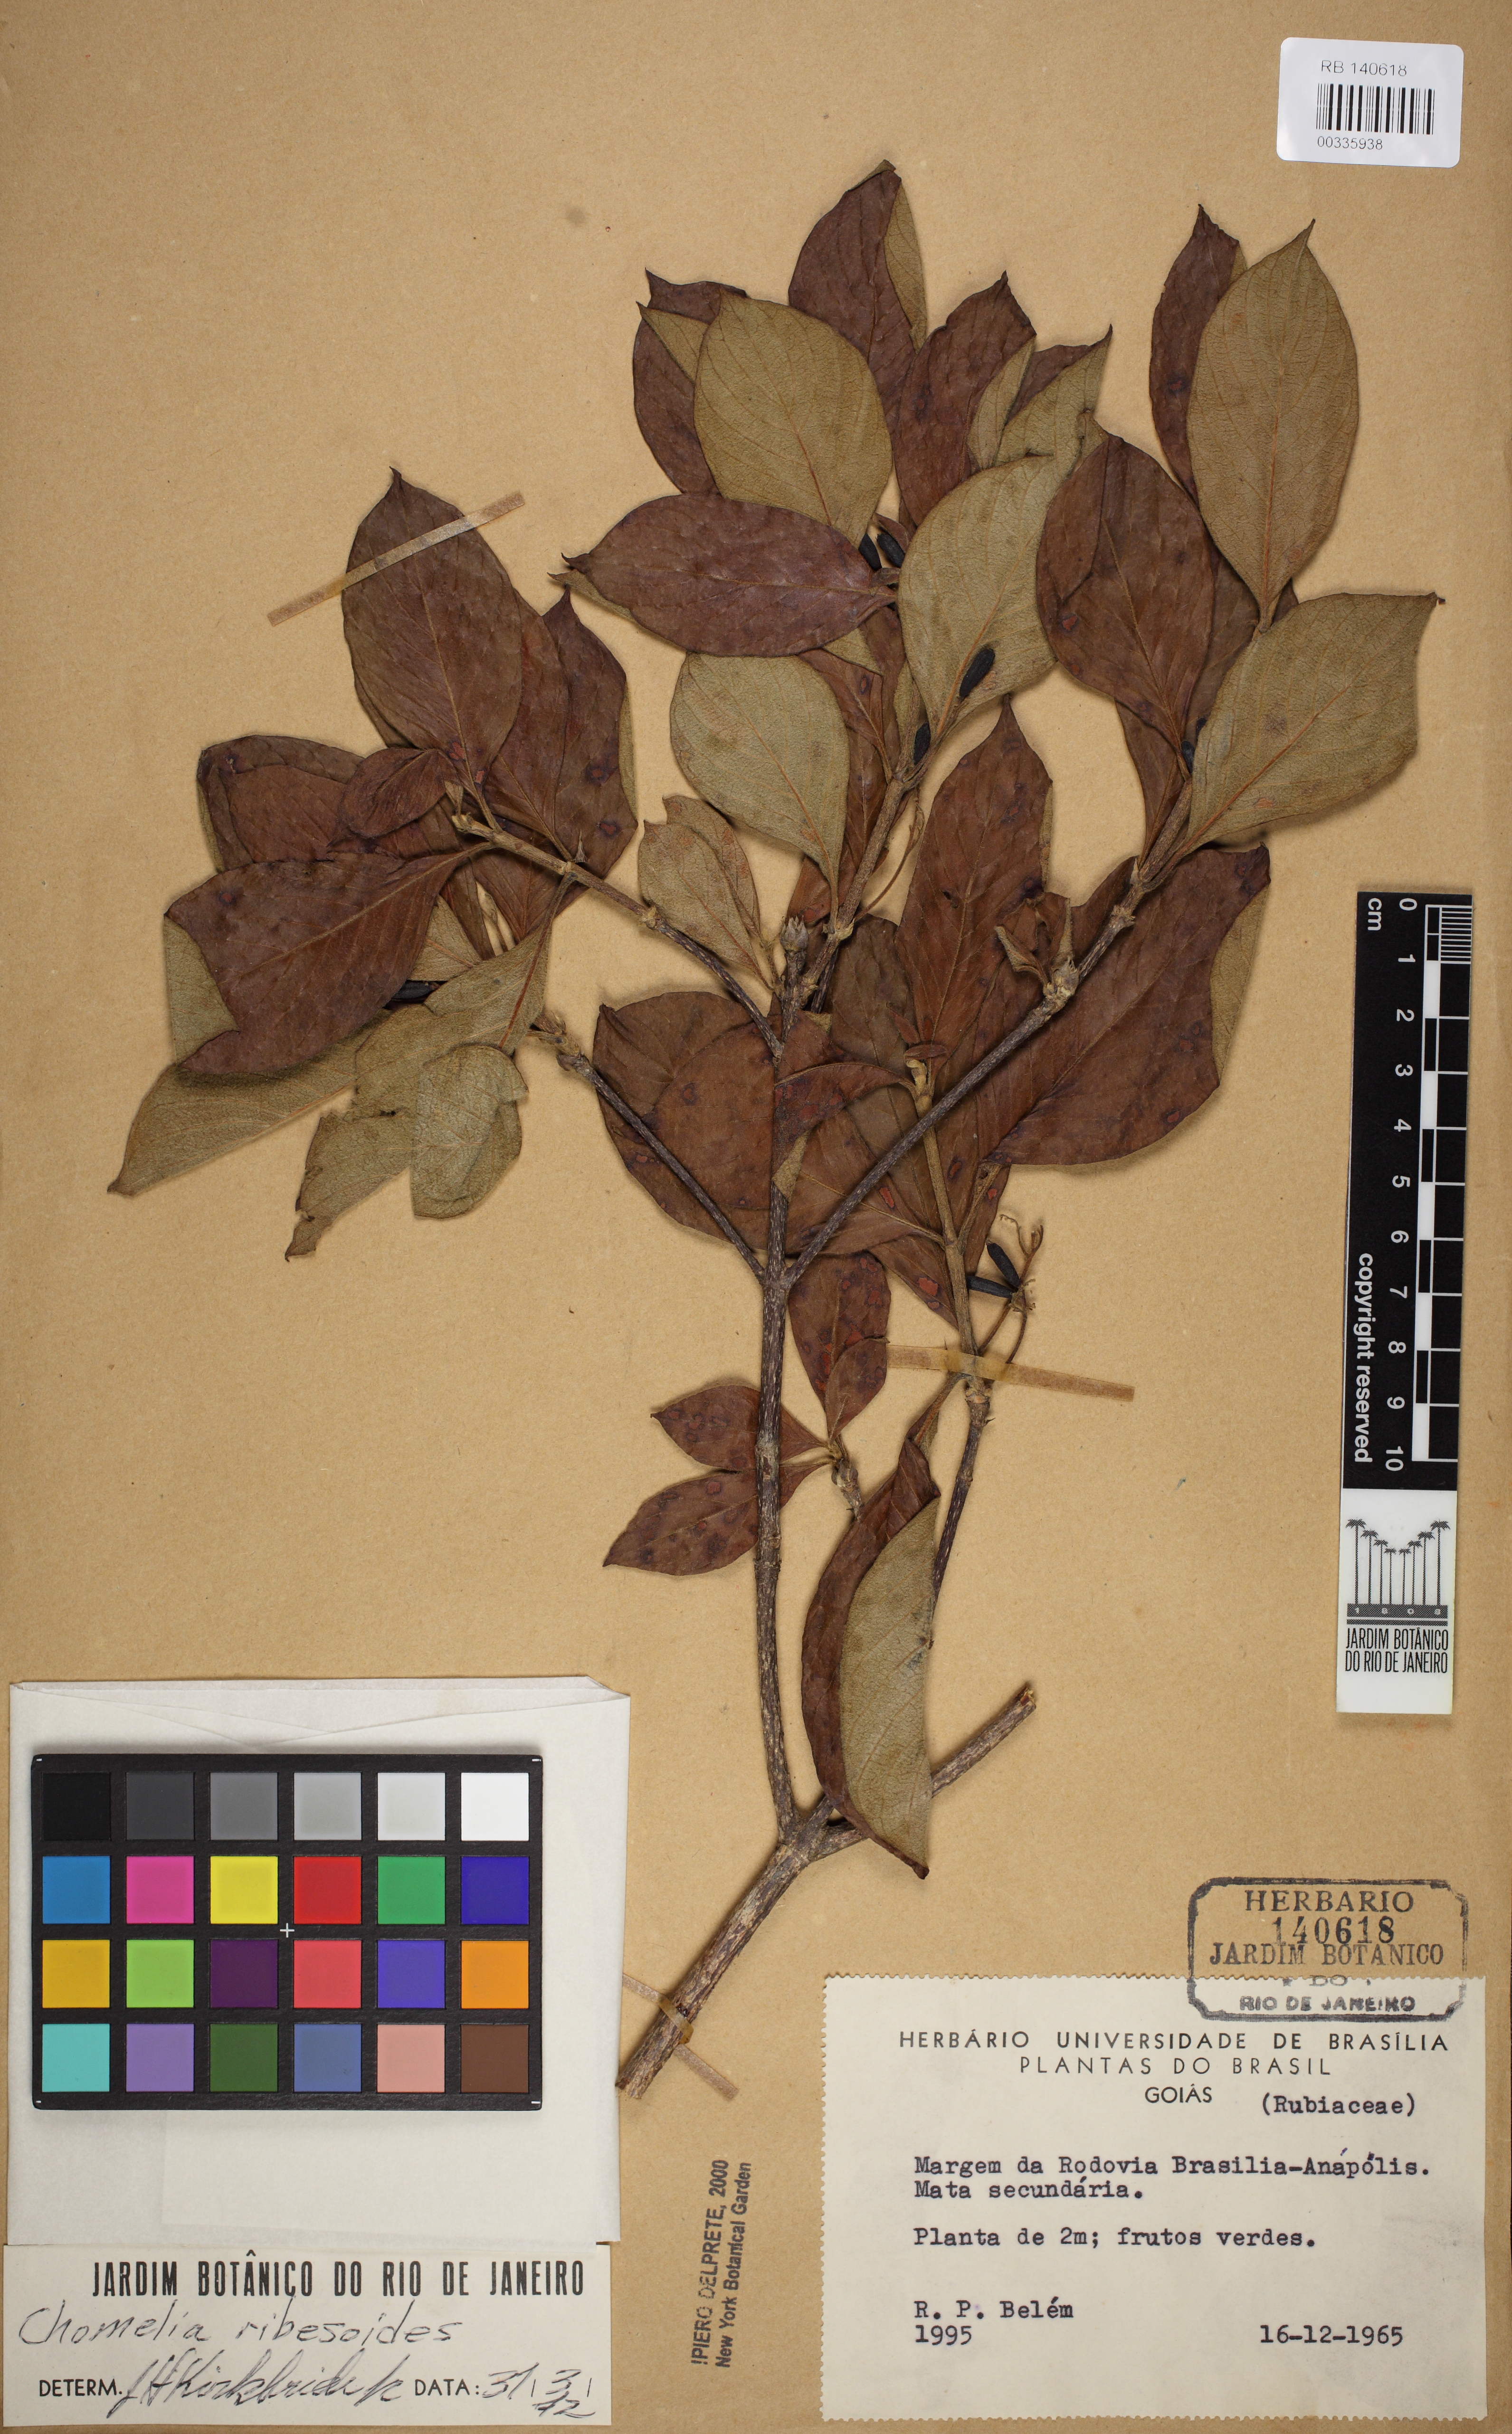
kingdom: Plantae
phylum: Tracheophyta
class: Magnoliopsida
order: Gentianales
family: Rubiaceae
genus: Chomelia
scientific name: Chomelia ribesioides
